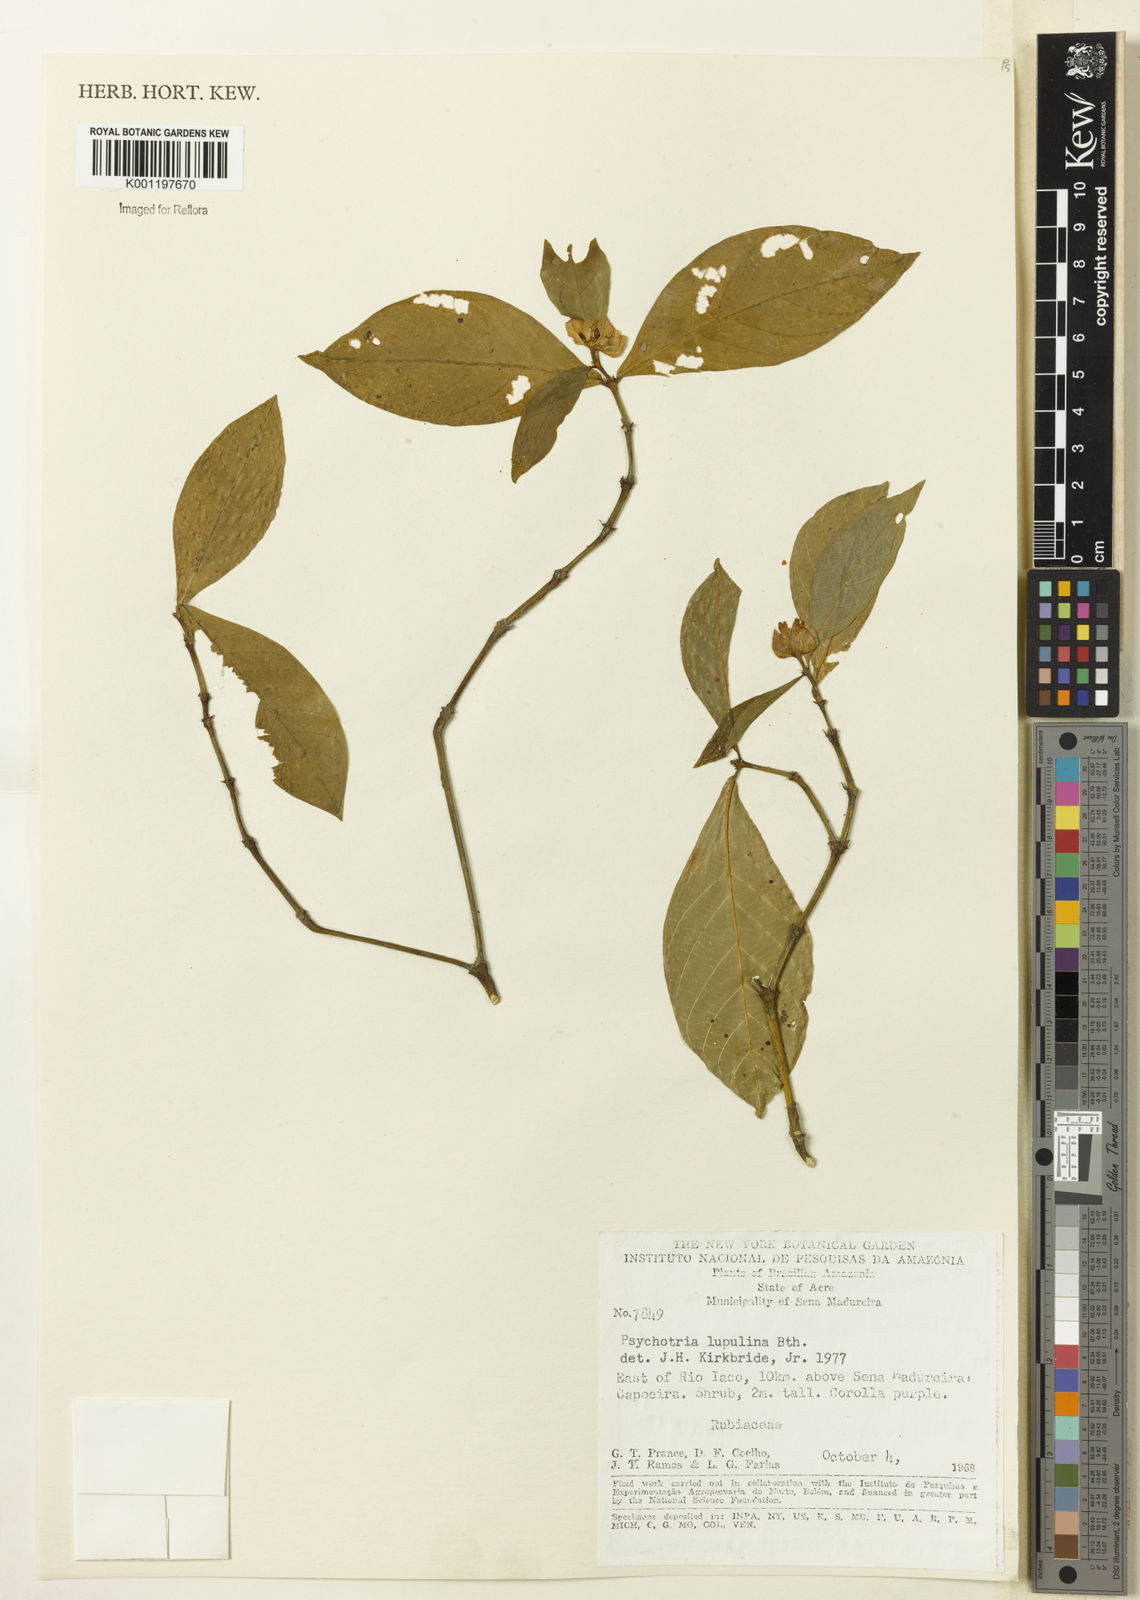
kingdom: Plantae
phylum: Tracheophyta
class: Magnoliopsida
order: Gentianales
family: Rubiaceae
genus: Palicourea
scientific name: Palicourea justiciifolia
